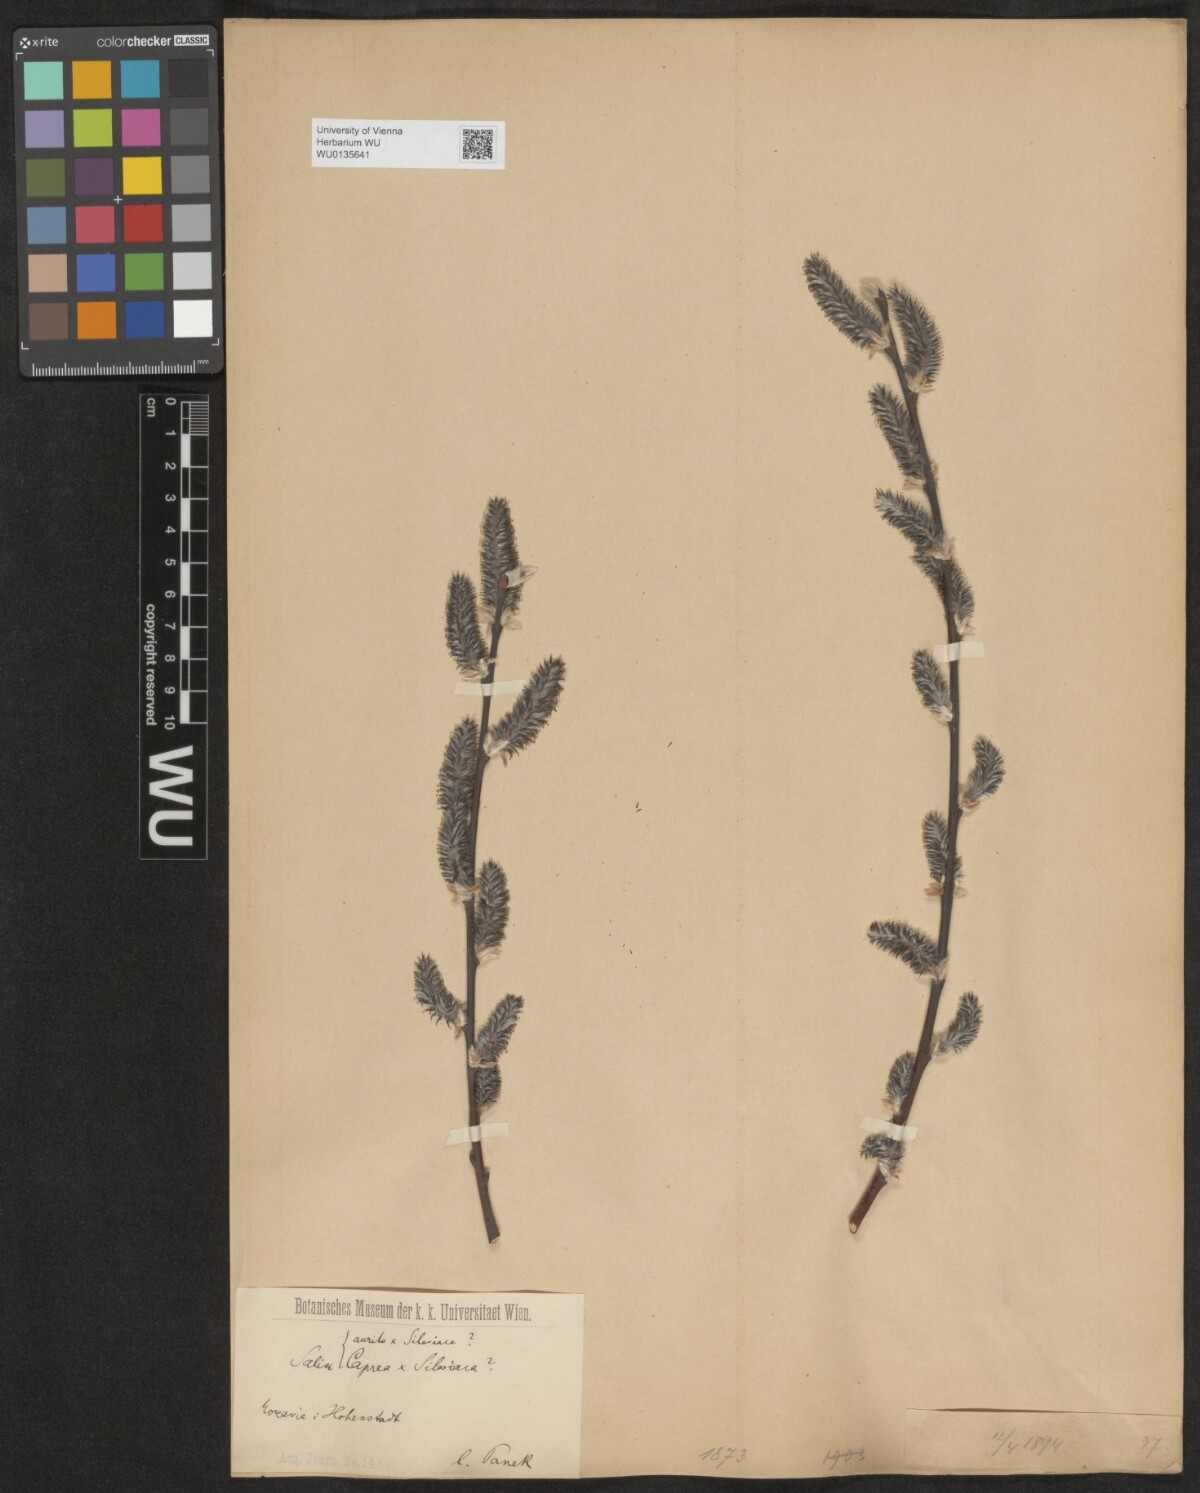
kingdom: Plantae
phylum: Tracheophyta
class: Magnoliopsida
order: Malpighiales
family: Salicaceae
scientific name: Salicaceae
